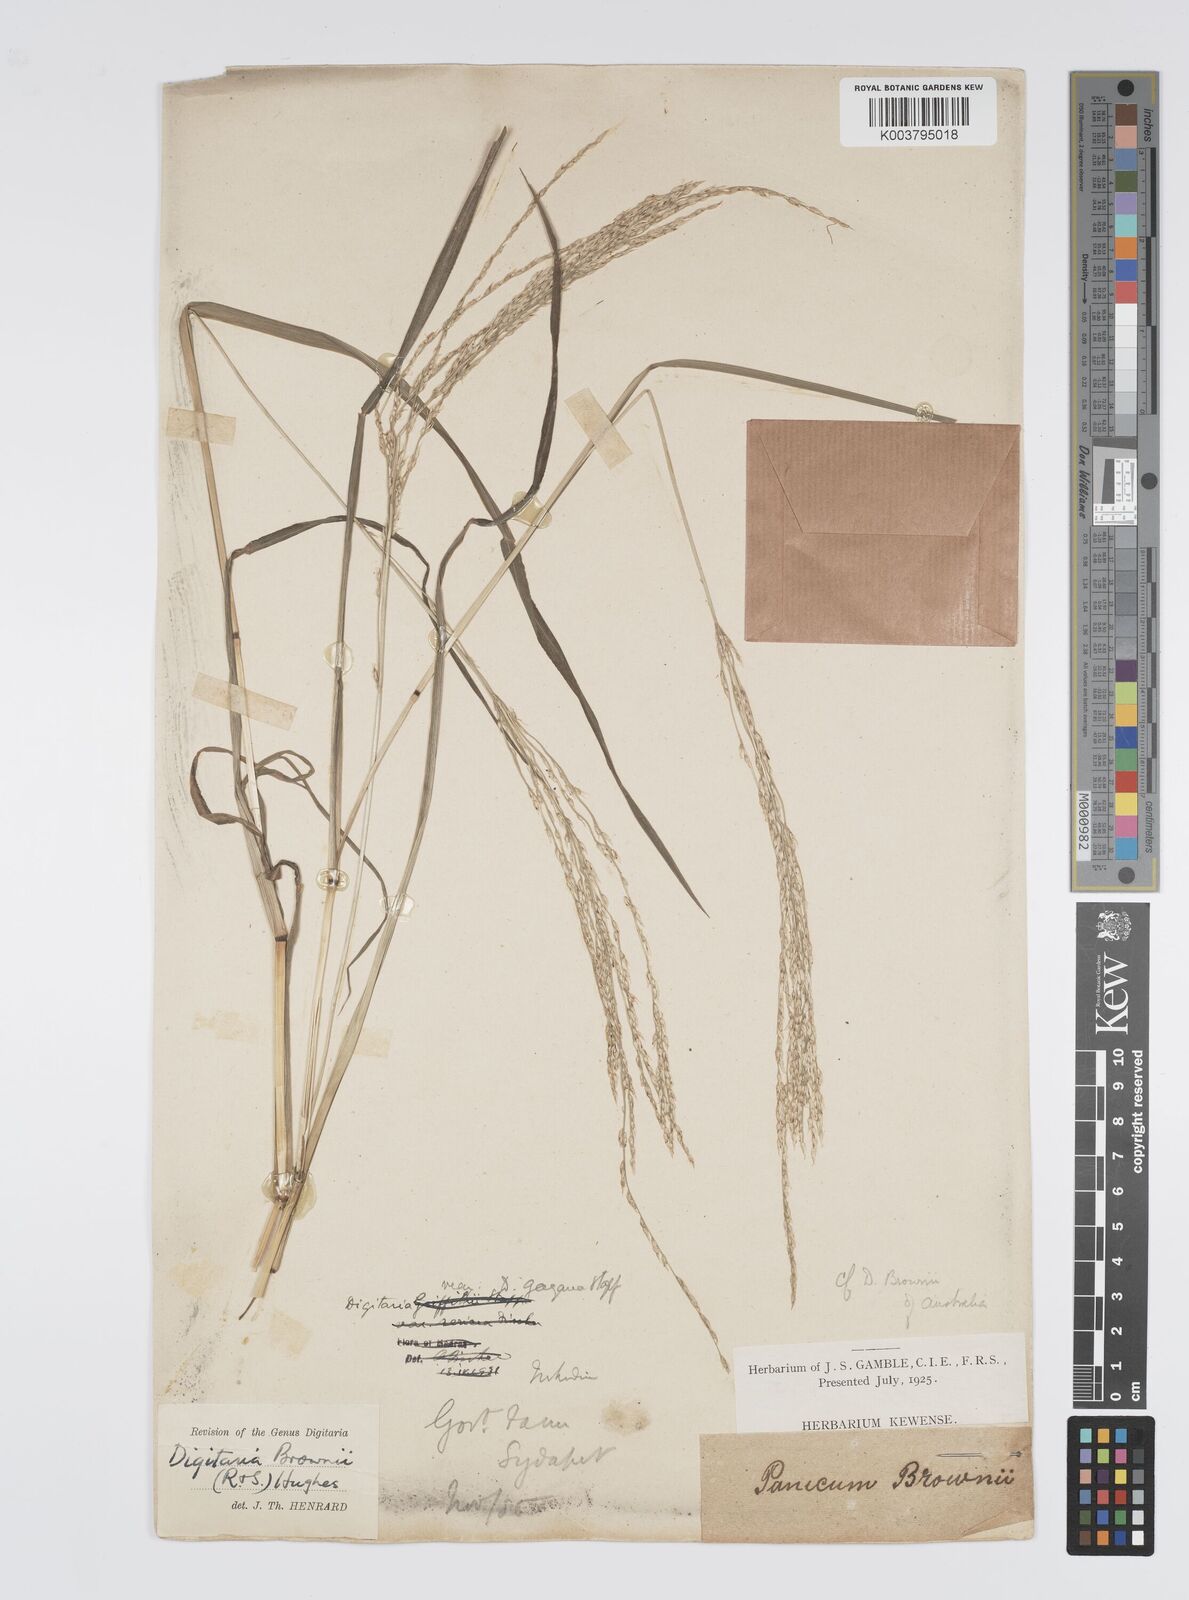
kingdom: Plantae
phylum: Tracheophyta
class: Liliopsida
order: Poales
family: Poaceae
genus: Digitaria
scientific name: Digitaria brownii
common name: Cotton grass
